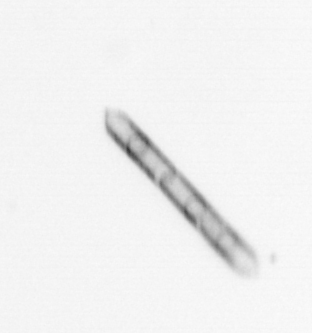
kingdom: Chromista
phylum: Ochrophyta
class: Bacillariophyceae
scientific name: Bacillariophyceae
